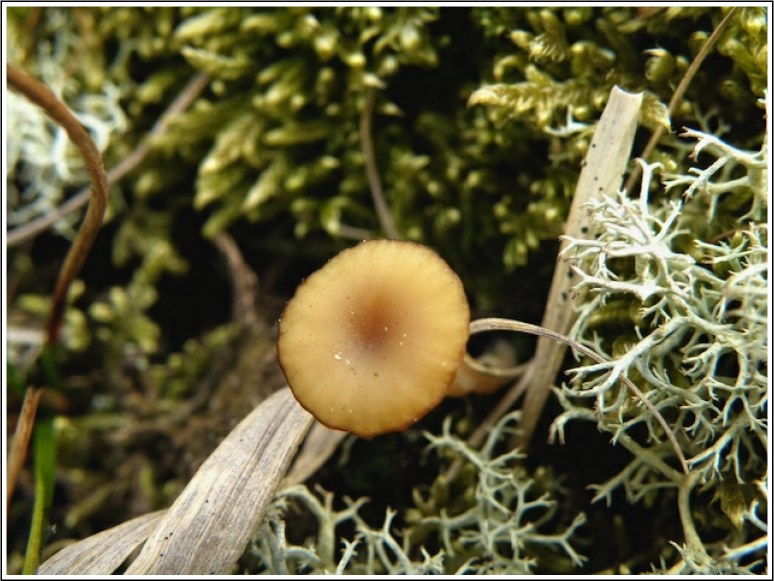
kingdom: Fungi
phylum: Basidiomycota
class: Agaricomycetes
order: Agaricales
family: Hygrophoraceae
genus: Lichenomphalia
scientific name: Lichenomphalia umbellifera
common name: tørve-lavhat
